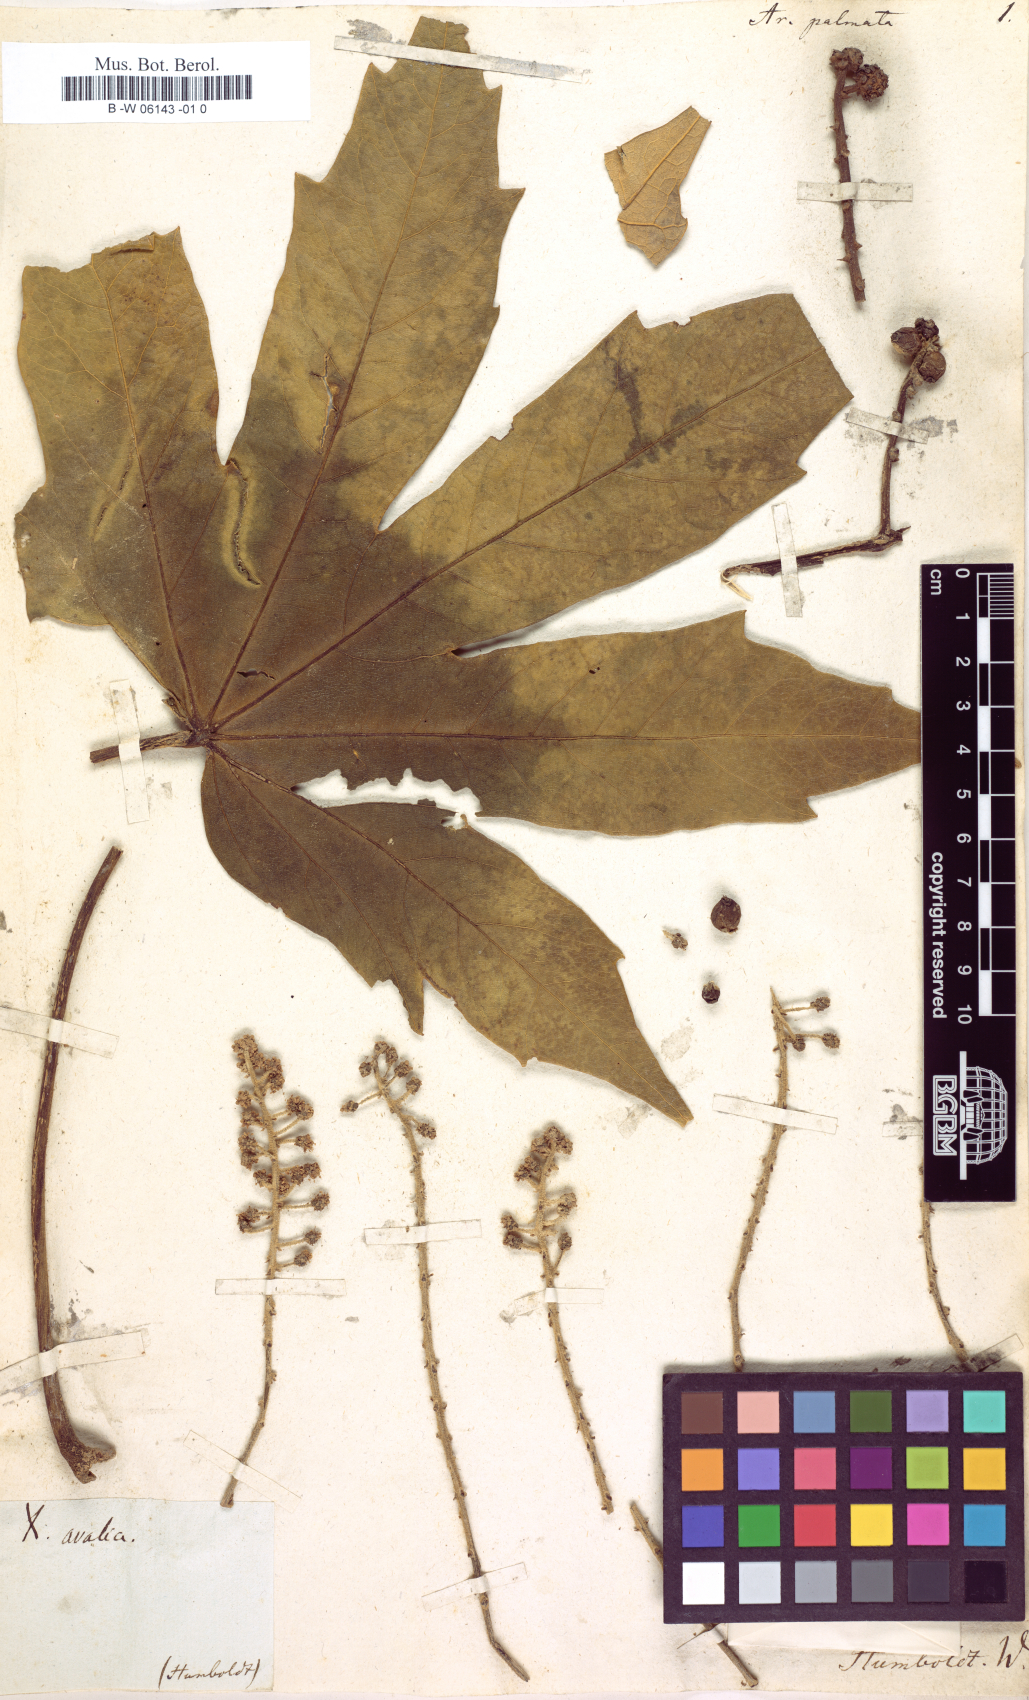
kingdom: Plantae
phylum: Tracheophyta
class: Magnoliopsida
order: Apiales
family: Araliaceae
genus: Oreopanax
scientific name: Oreopanax cheirophyllus
